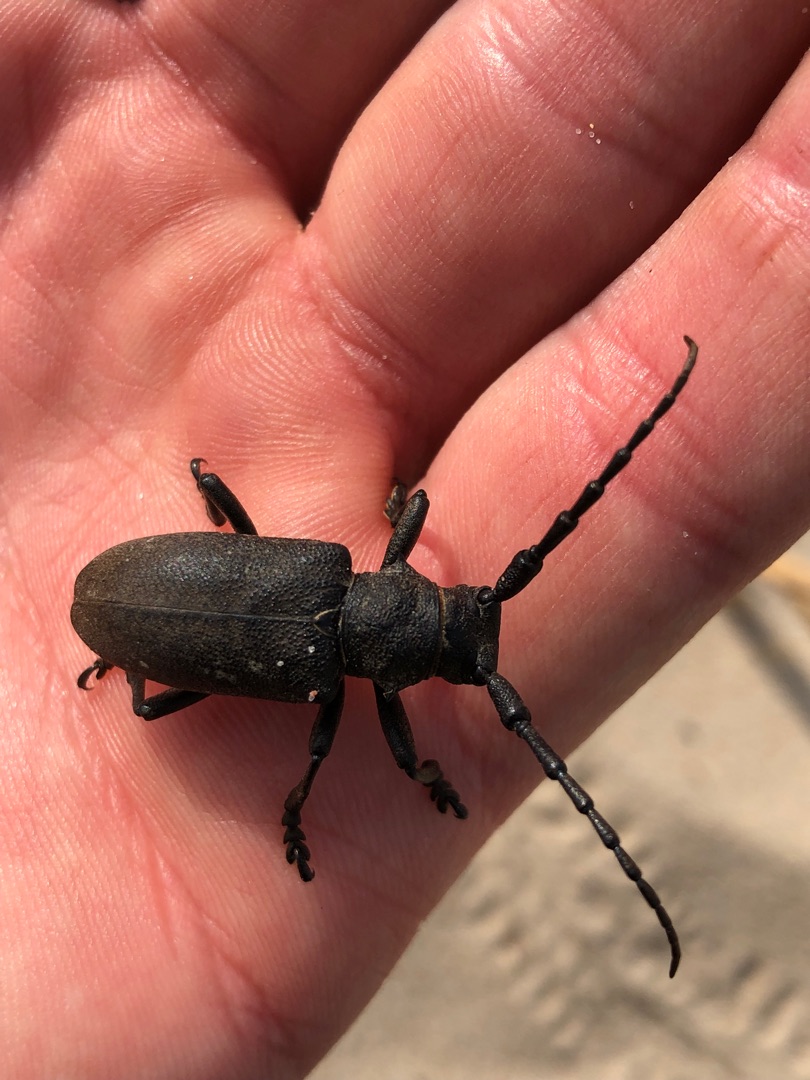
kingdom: Animalia
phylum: Arthropoda
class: Insecta
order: Coleoptera
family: Cerambycidae
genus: Lamia
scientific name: Lamia textor
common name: Væver
